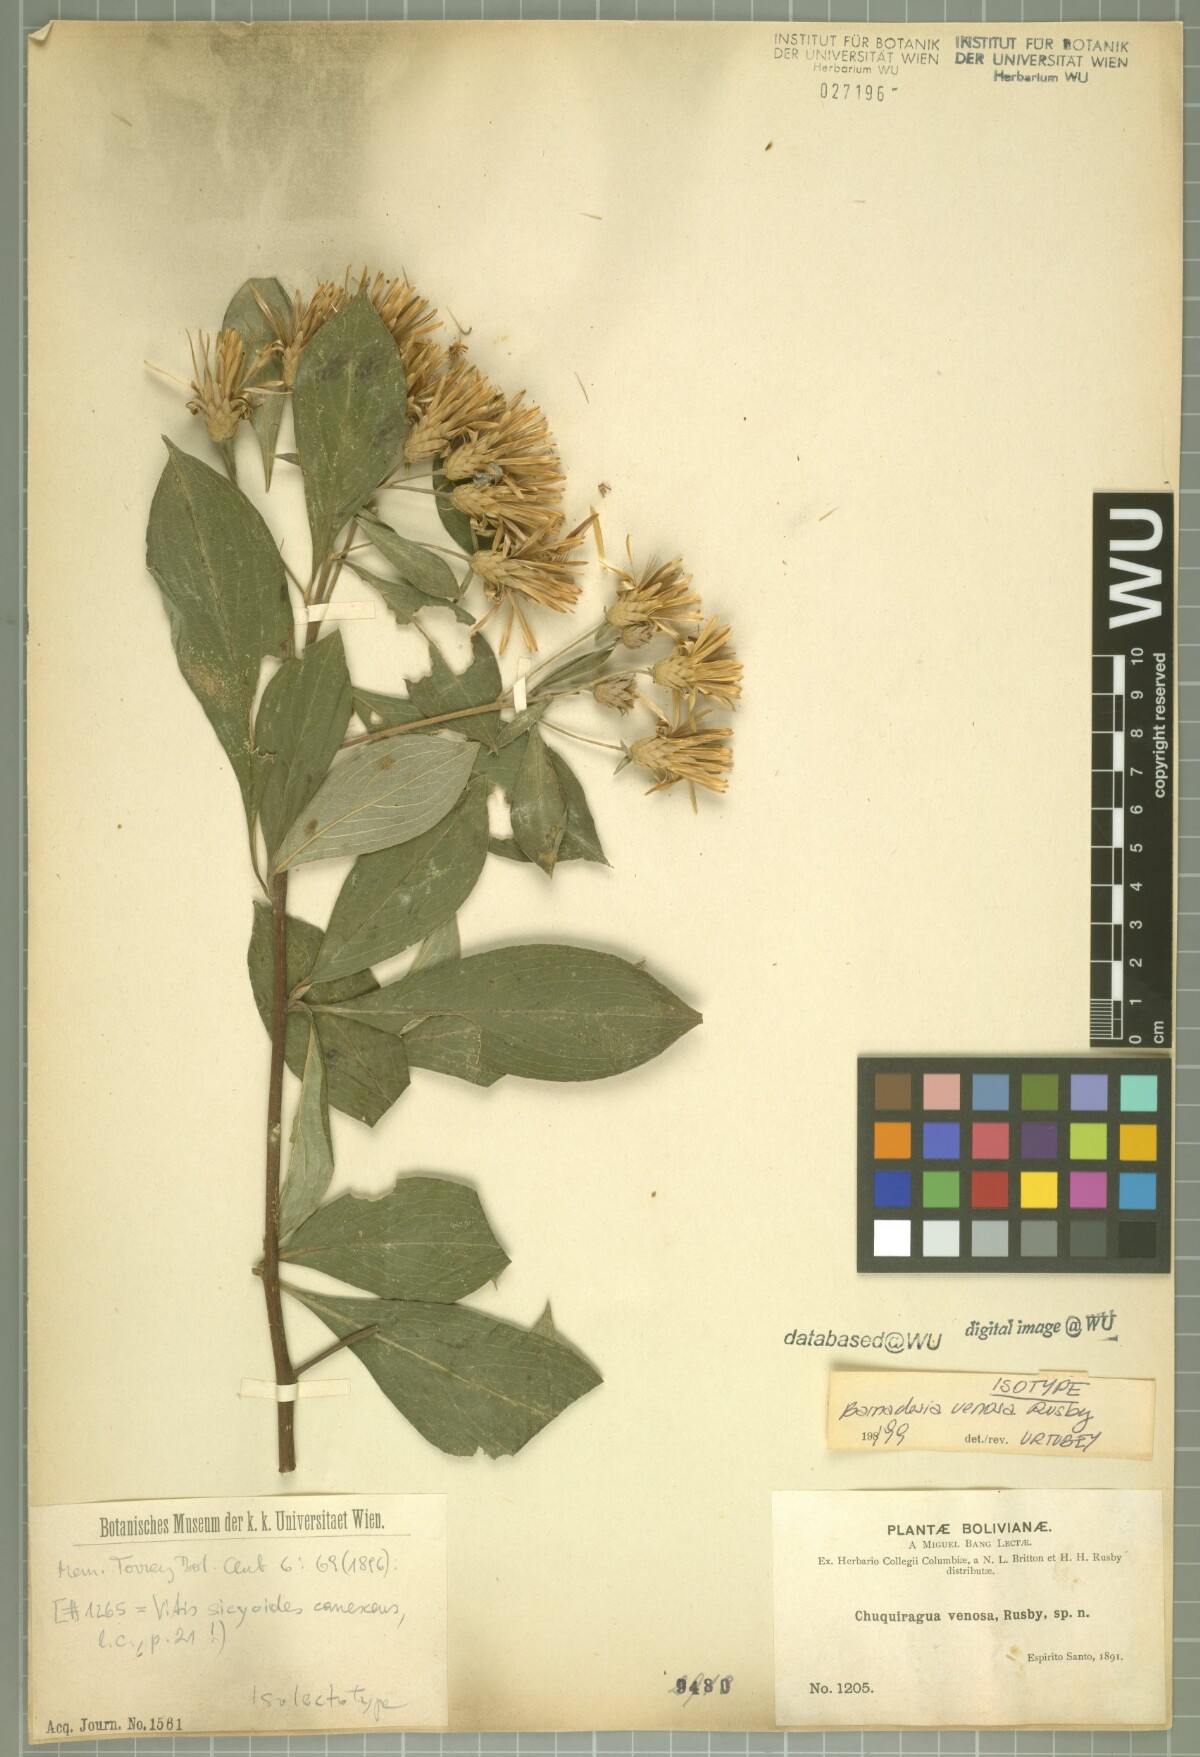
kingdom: Plantae
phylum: Tracheophyta
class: Magnoliopsida
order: Asterales
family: Asteraceae
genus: Barnadesia
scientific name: Barnadesia corymbosa
